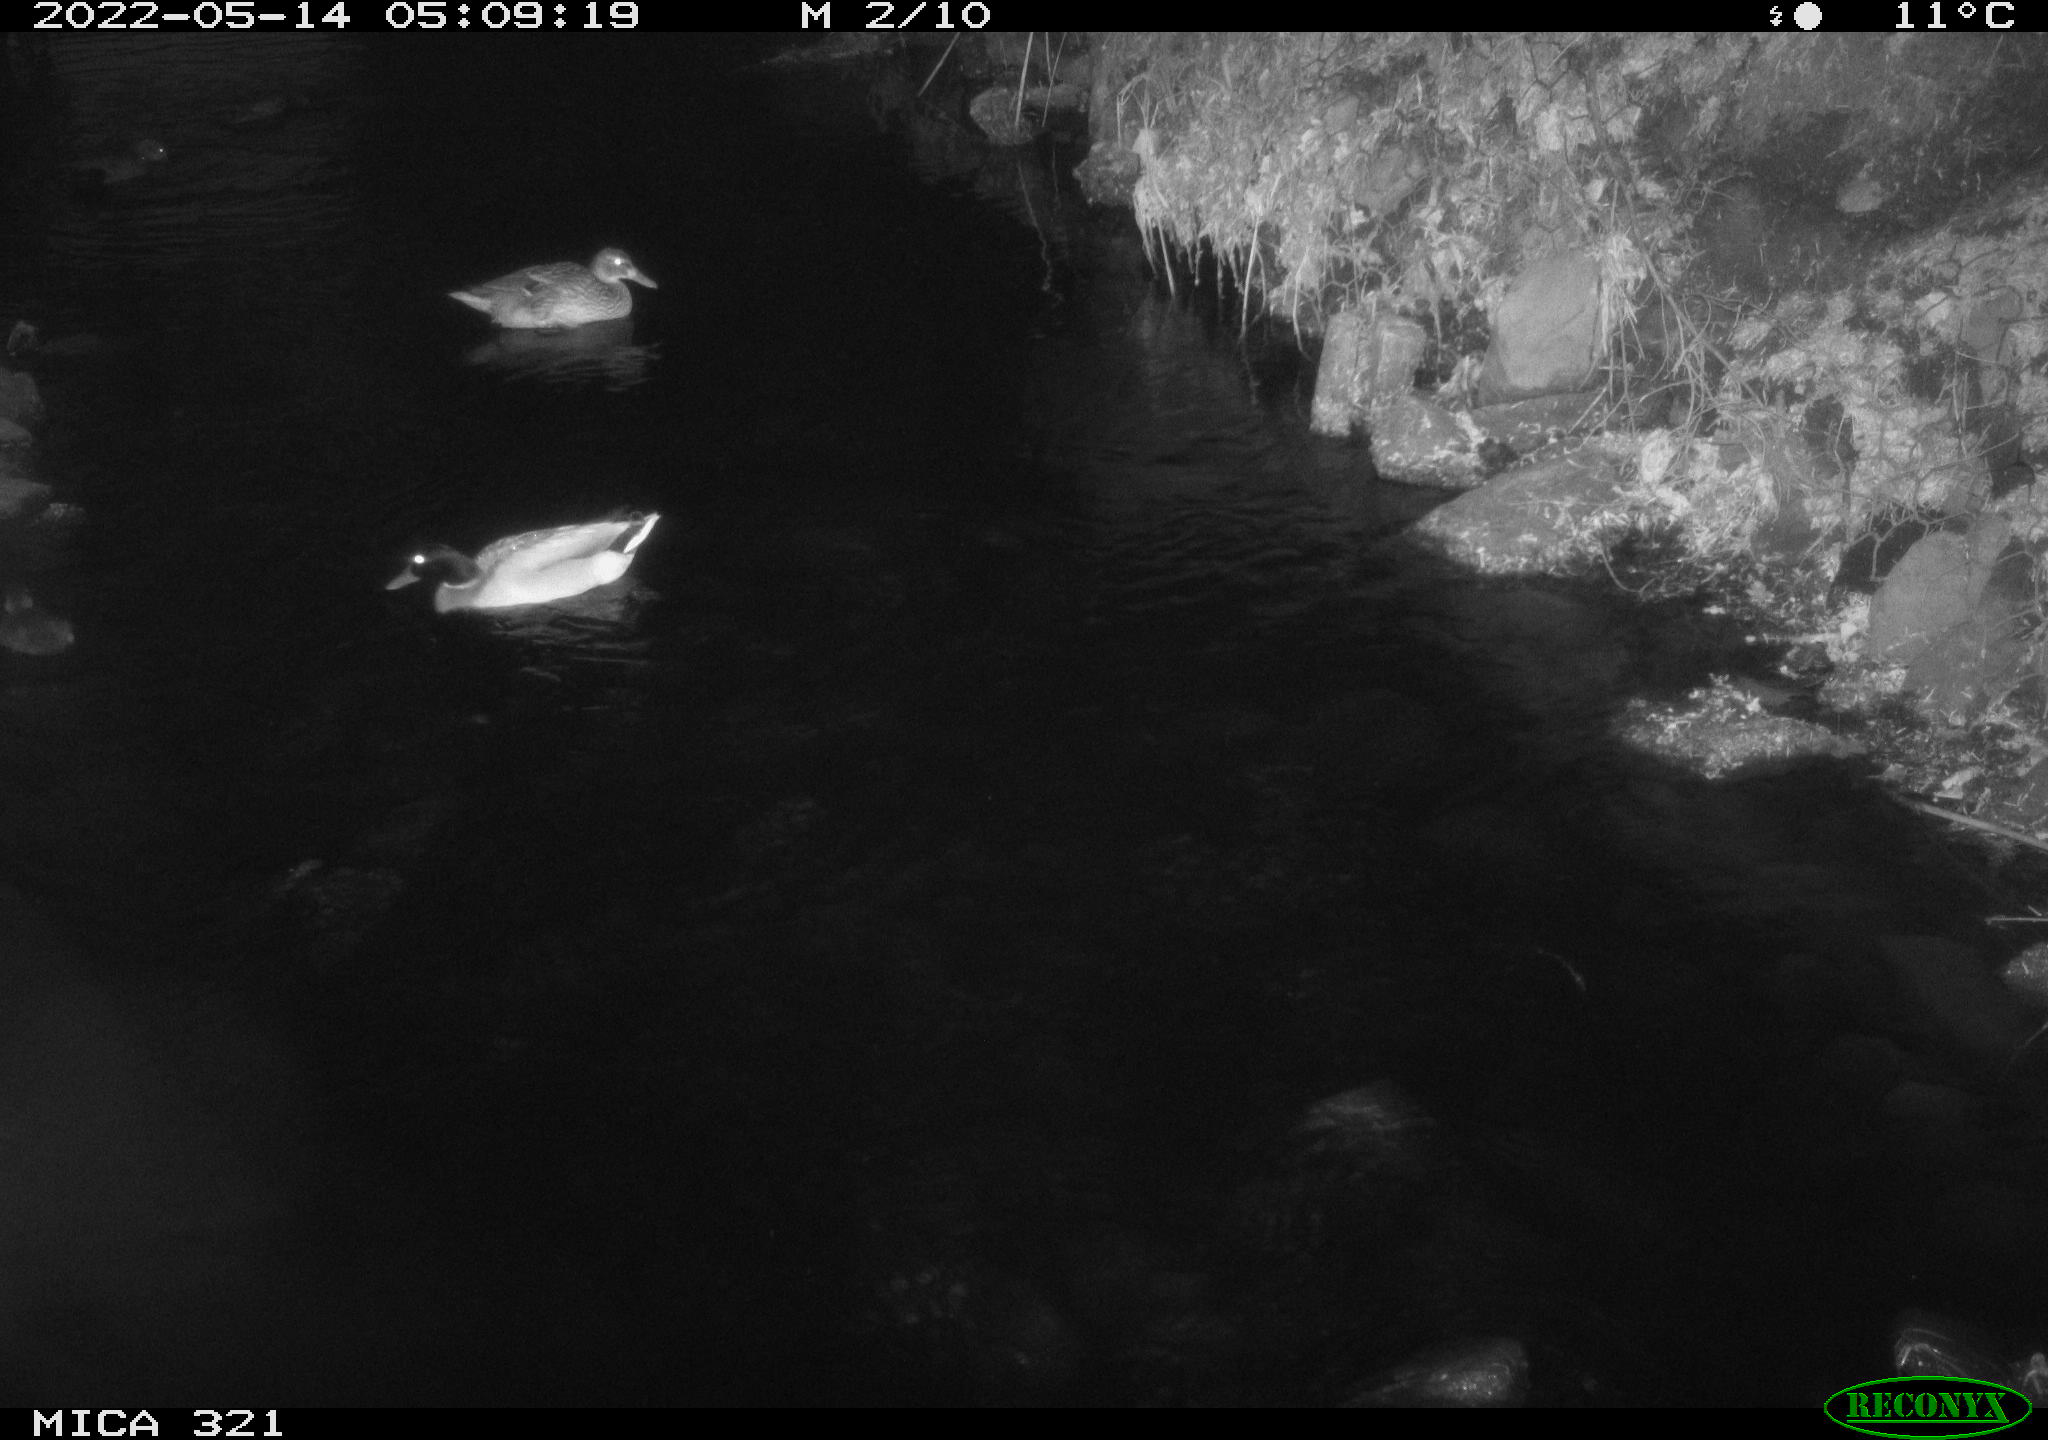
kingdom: Animalia
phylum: Chordata
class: Aves
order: Anseriformes
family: Anatidae
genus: Anas
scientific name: Anas platyrhynchos
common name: Mallard
